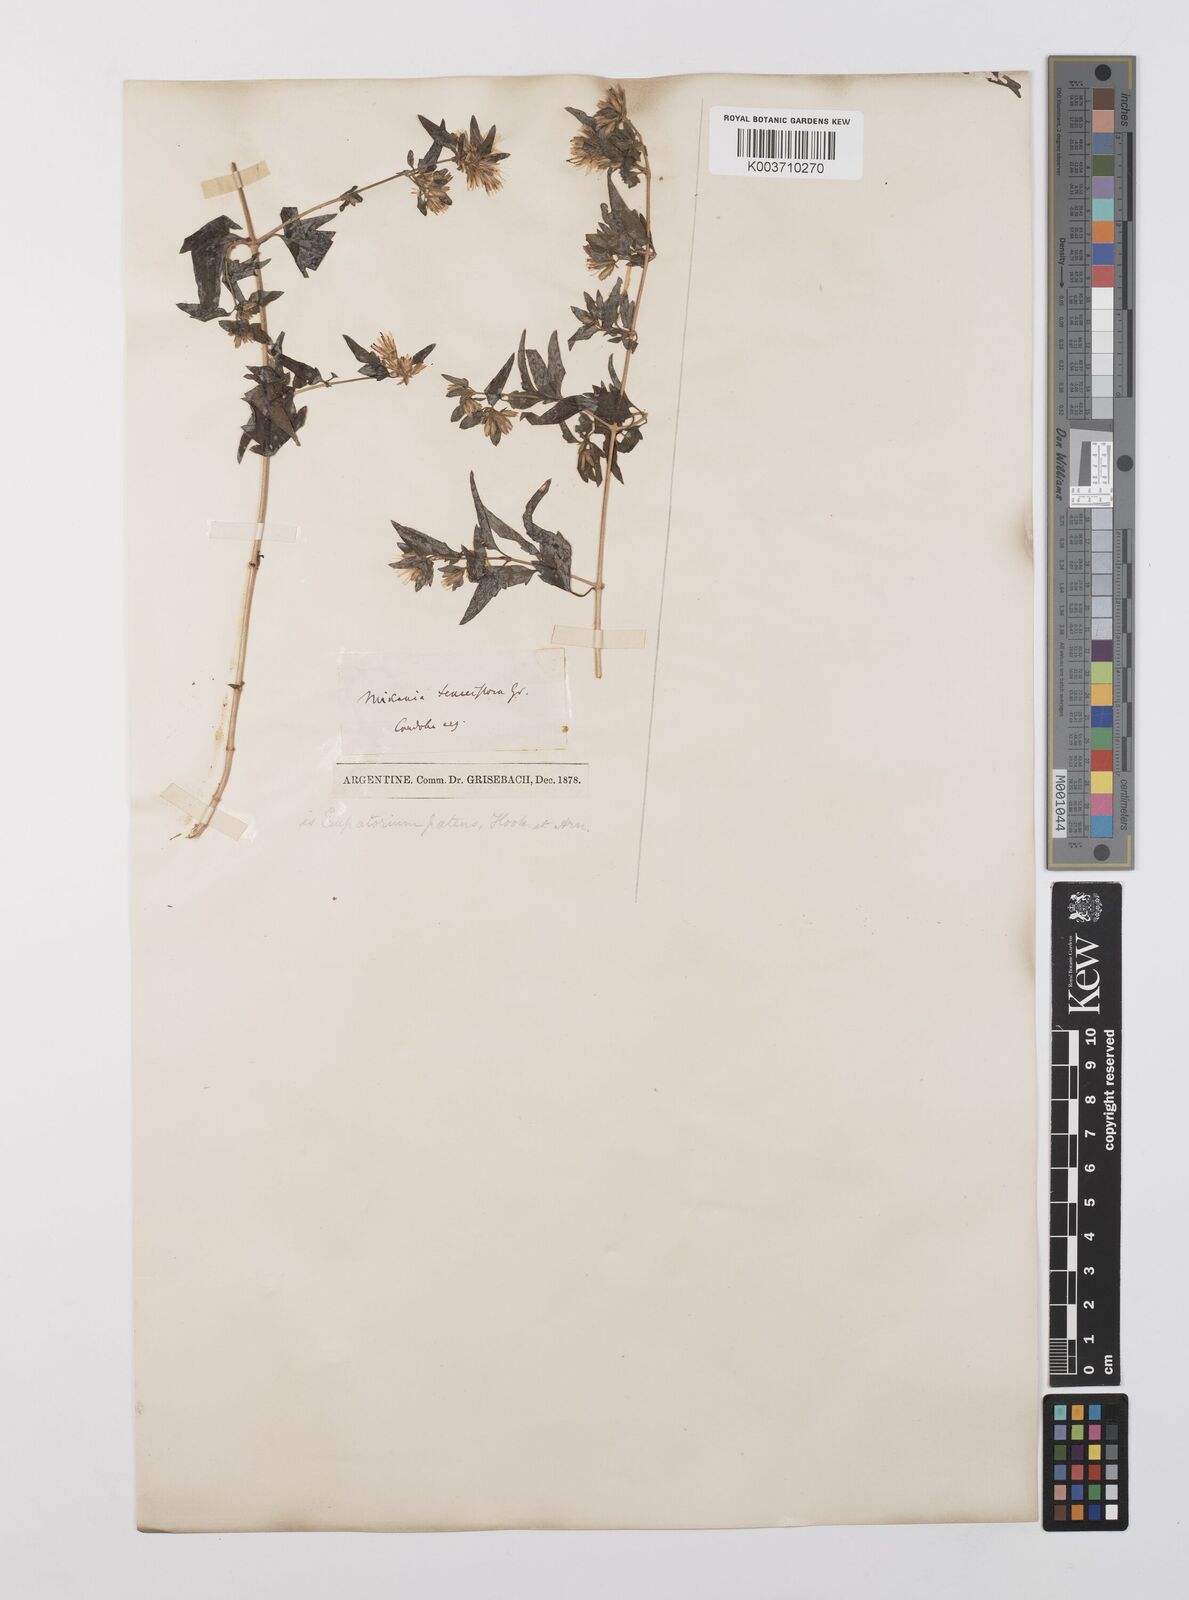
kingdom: Plantae
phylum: Tracheophyta
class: Magnoliopsida
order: Asterales
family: Asteraceae
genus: Austrobrickellia
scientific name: Austrobrickellia patens
